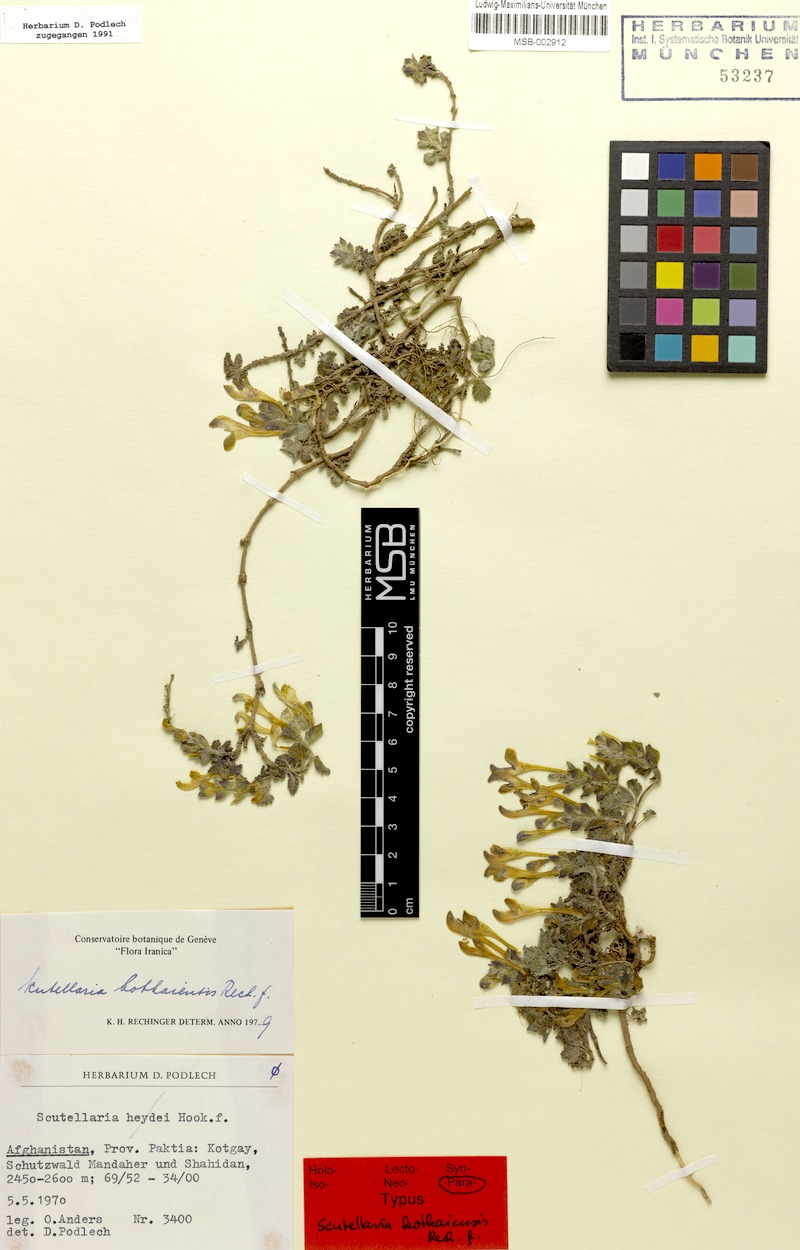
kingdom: Plantae
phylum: Tracheophyta
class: Magnoliopsida
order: Lamiales
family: Lamiaceae
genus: Scutellaria
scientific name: Scutellaria kotkaiensis
